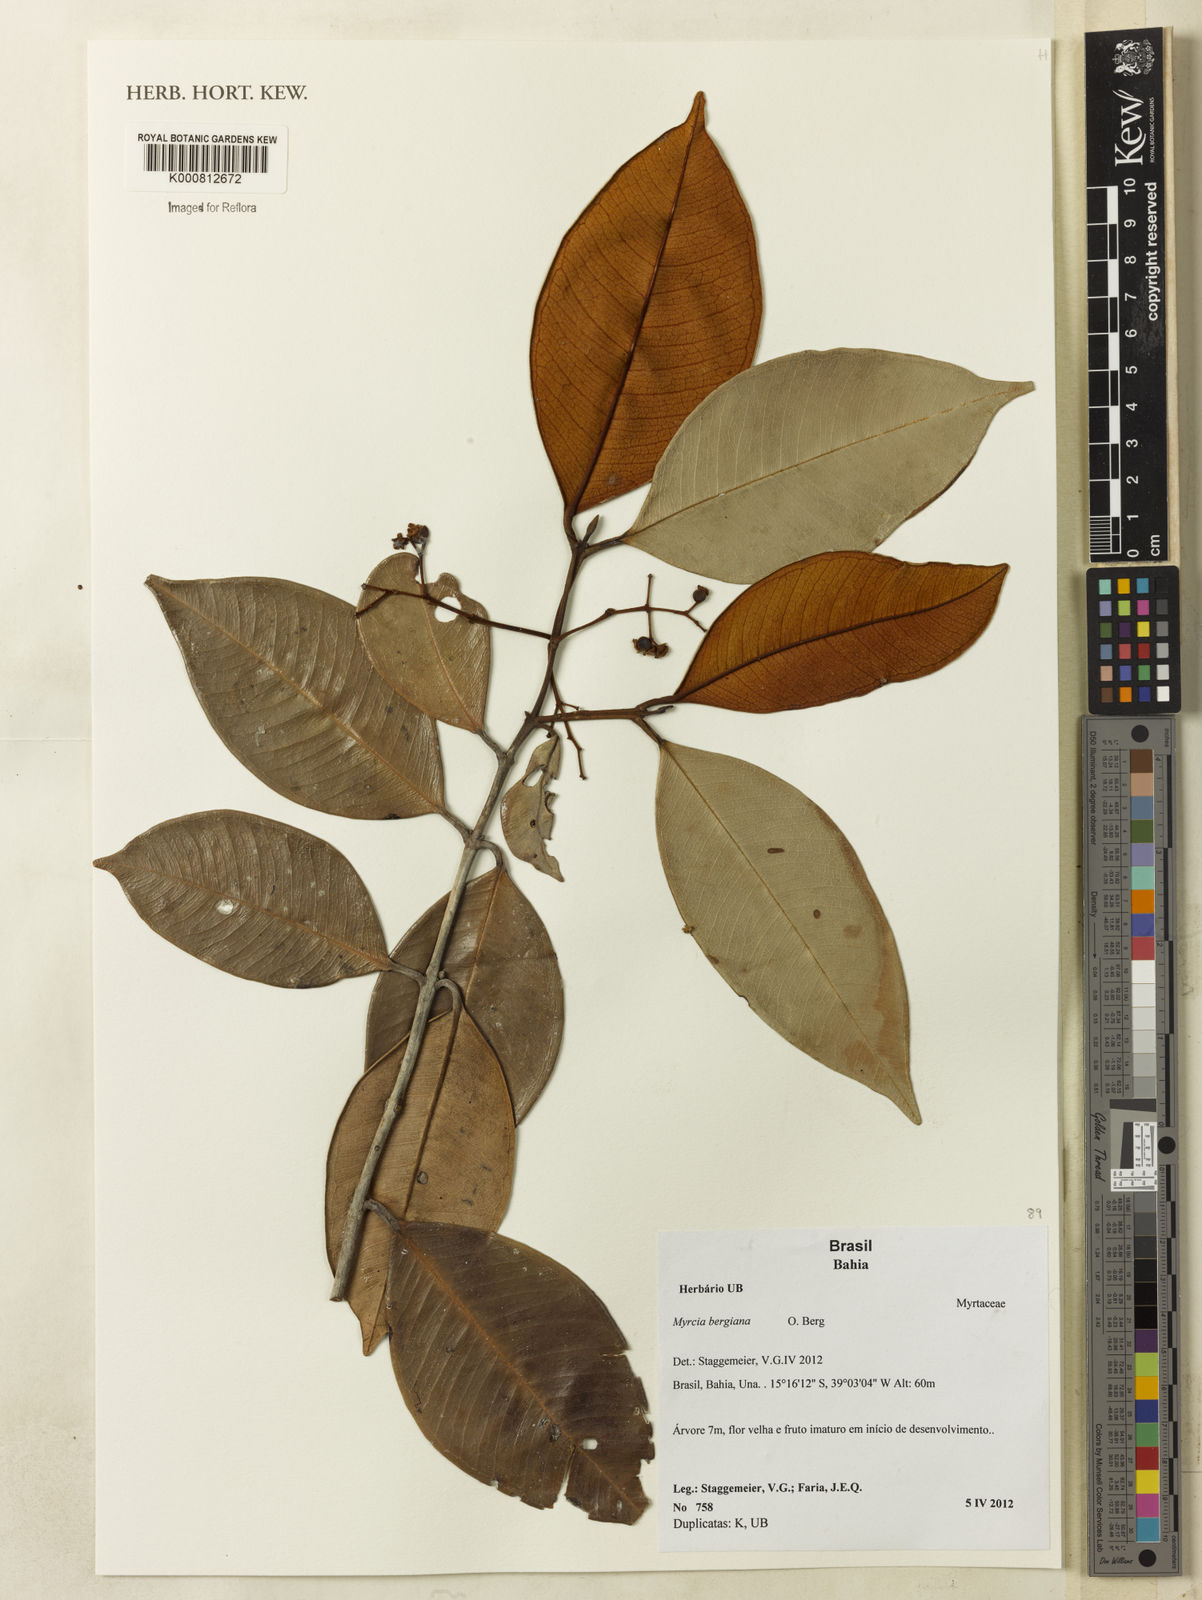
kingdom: Plantae
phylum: Tracheophyta
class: Magnoliopsida
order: Myrtales
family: Myrtaceae
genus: Myrcia
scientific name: Myrcia bergiana
